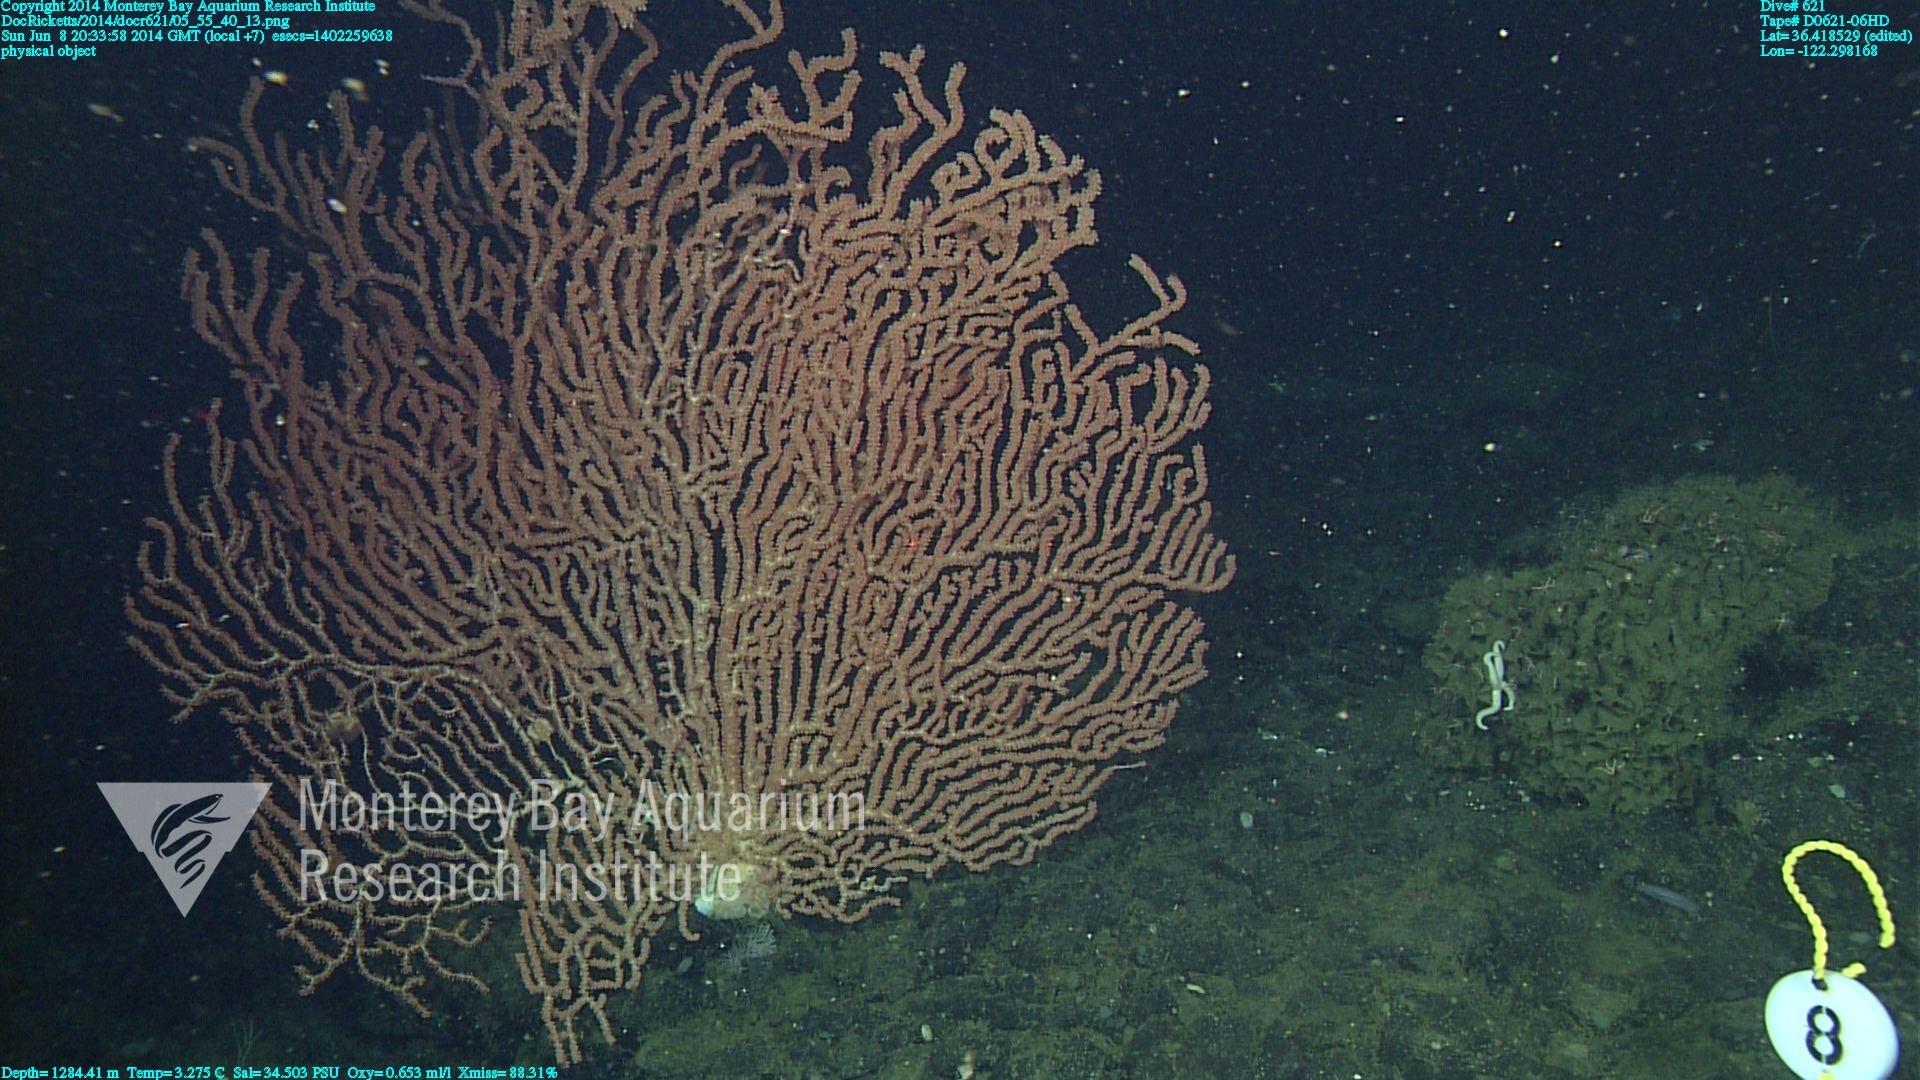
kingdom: Animalia
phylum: Cnidaria
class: Anthozoa
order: Scleralcyonacea
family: Keratoisididae
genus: Keratoisis
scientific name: Keratoisis
